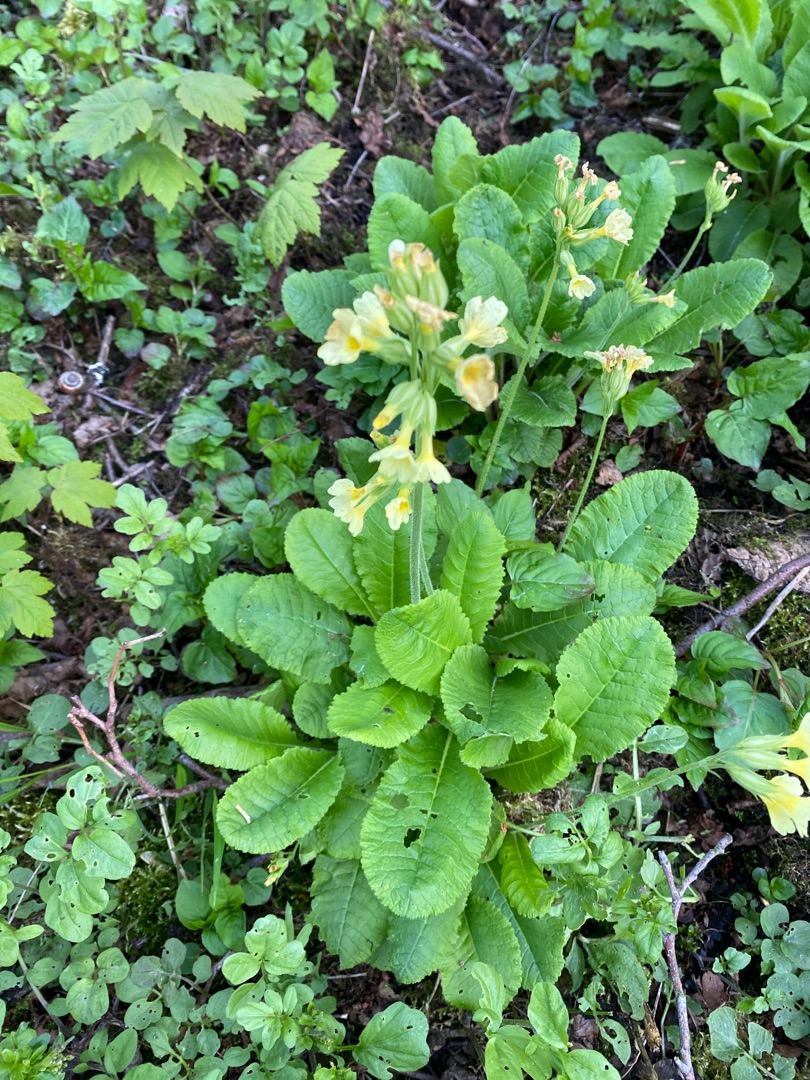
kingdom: Plantae
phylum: Tracheophyta
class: Magnoliopsida
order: Ericales
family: Primulaceae
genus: Primula
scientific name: Primula elatior
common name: Fladkravet kodriver
